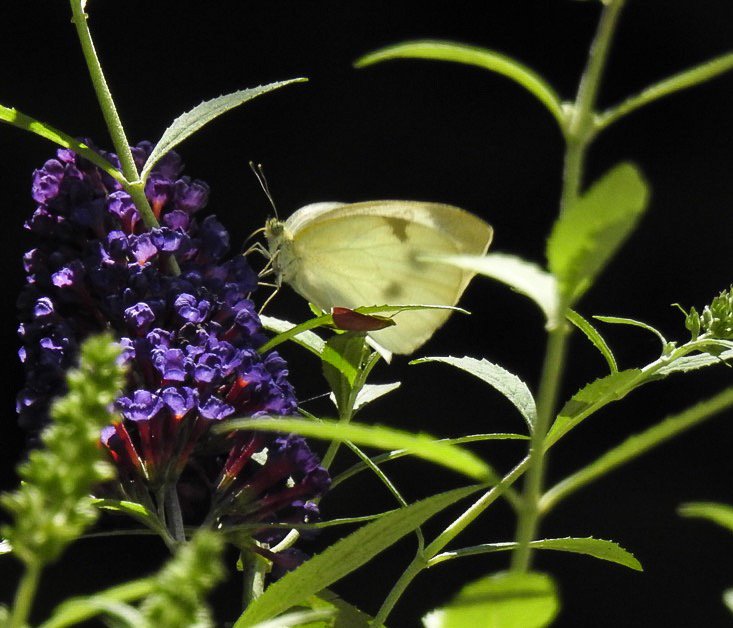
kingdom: Animalia
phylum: Arthropoda
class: Insecta
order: Lepidoptera
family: Pieridae
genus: Pieris
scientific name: Pieris rapae
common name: Cabbage White
